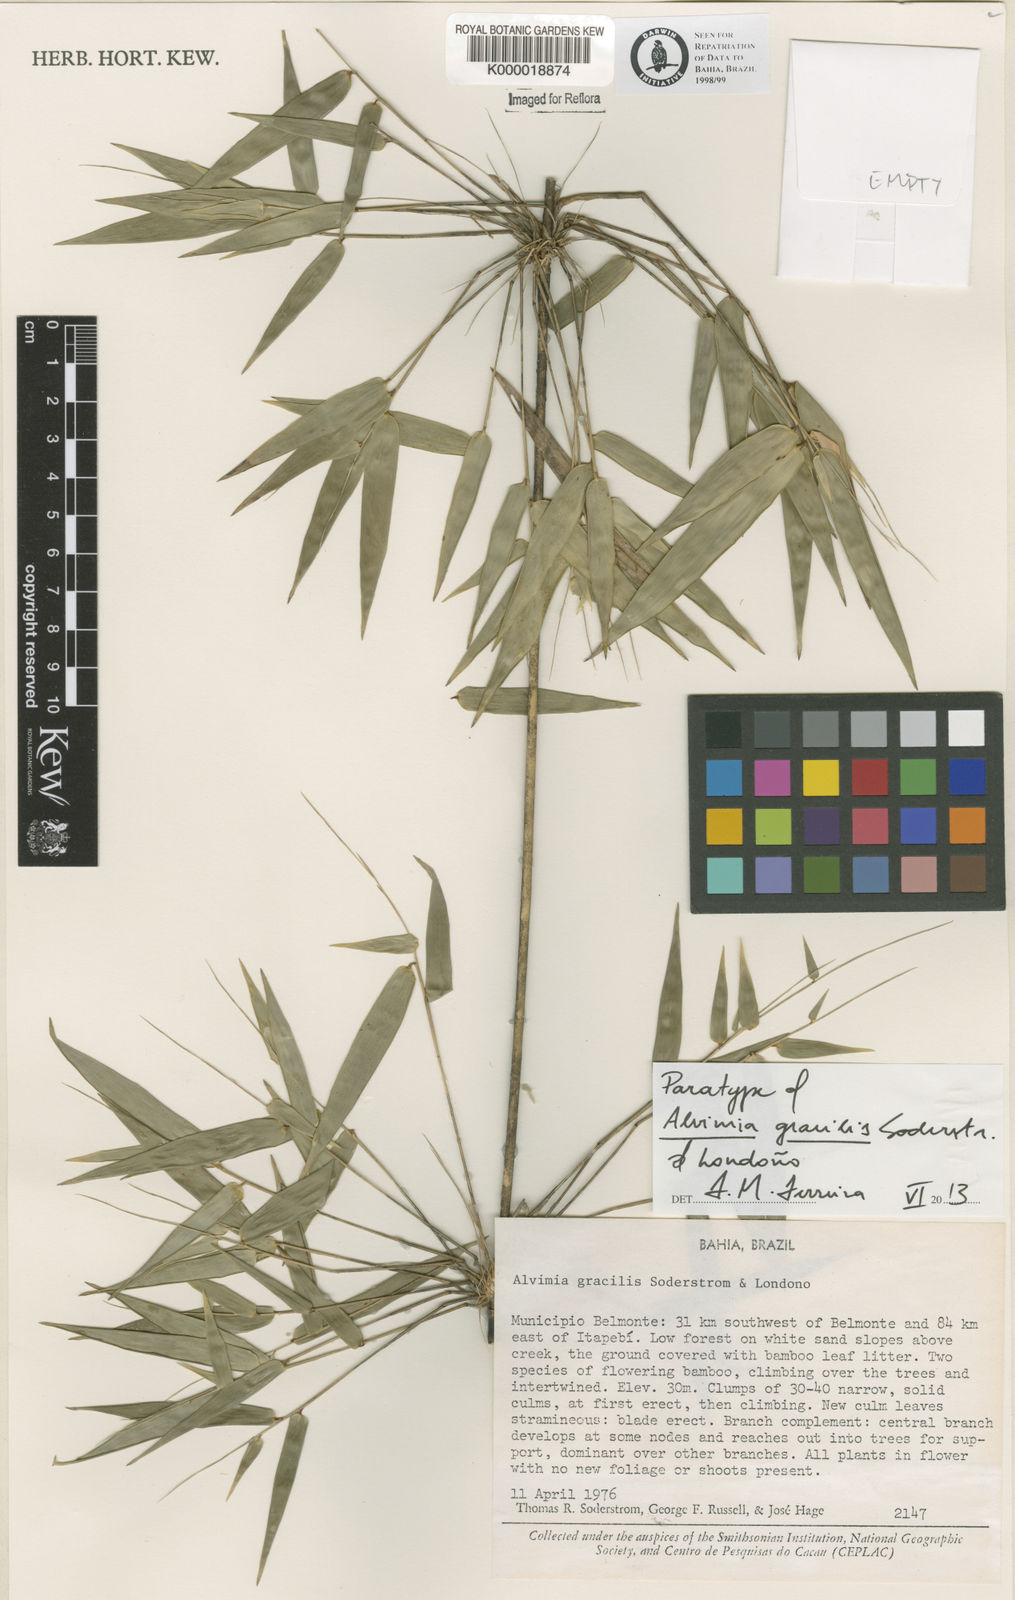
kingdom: Plantae
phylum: Tracheophyta
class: Liliopsida
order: Poales
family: Poaceae
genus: Alvimia
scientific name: Alvimia
